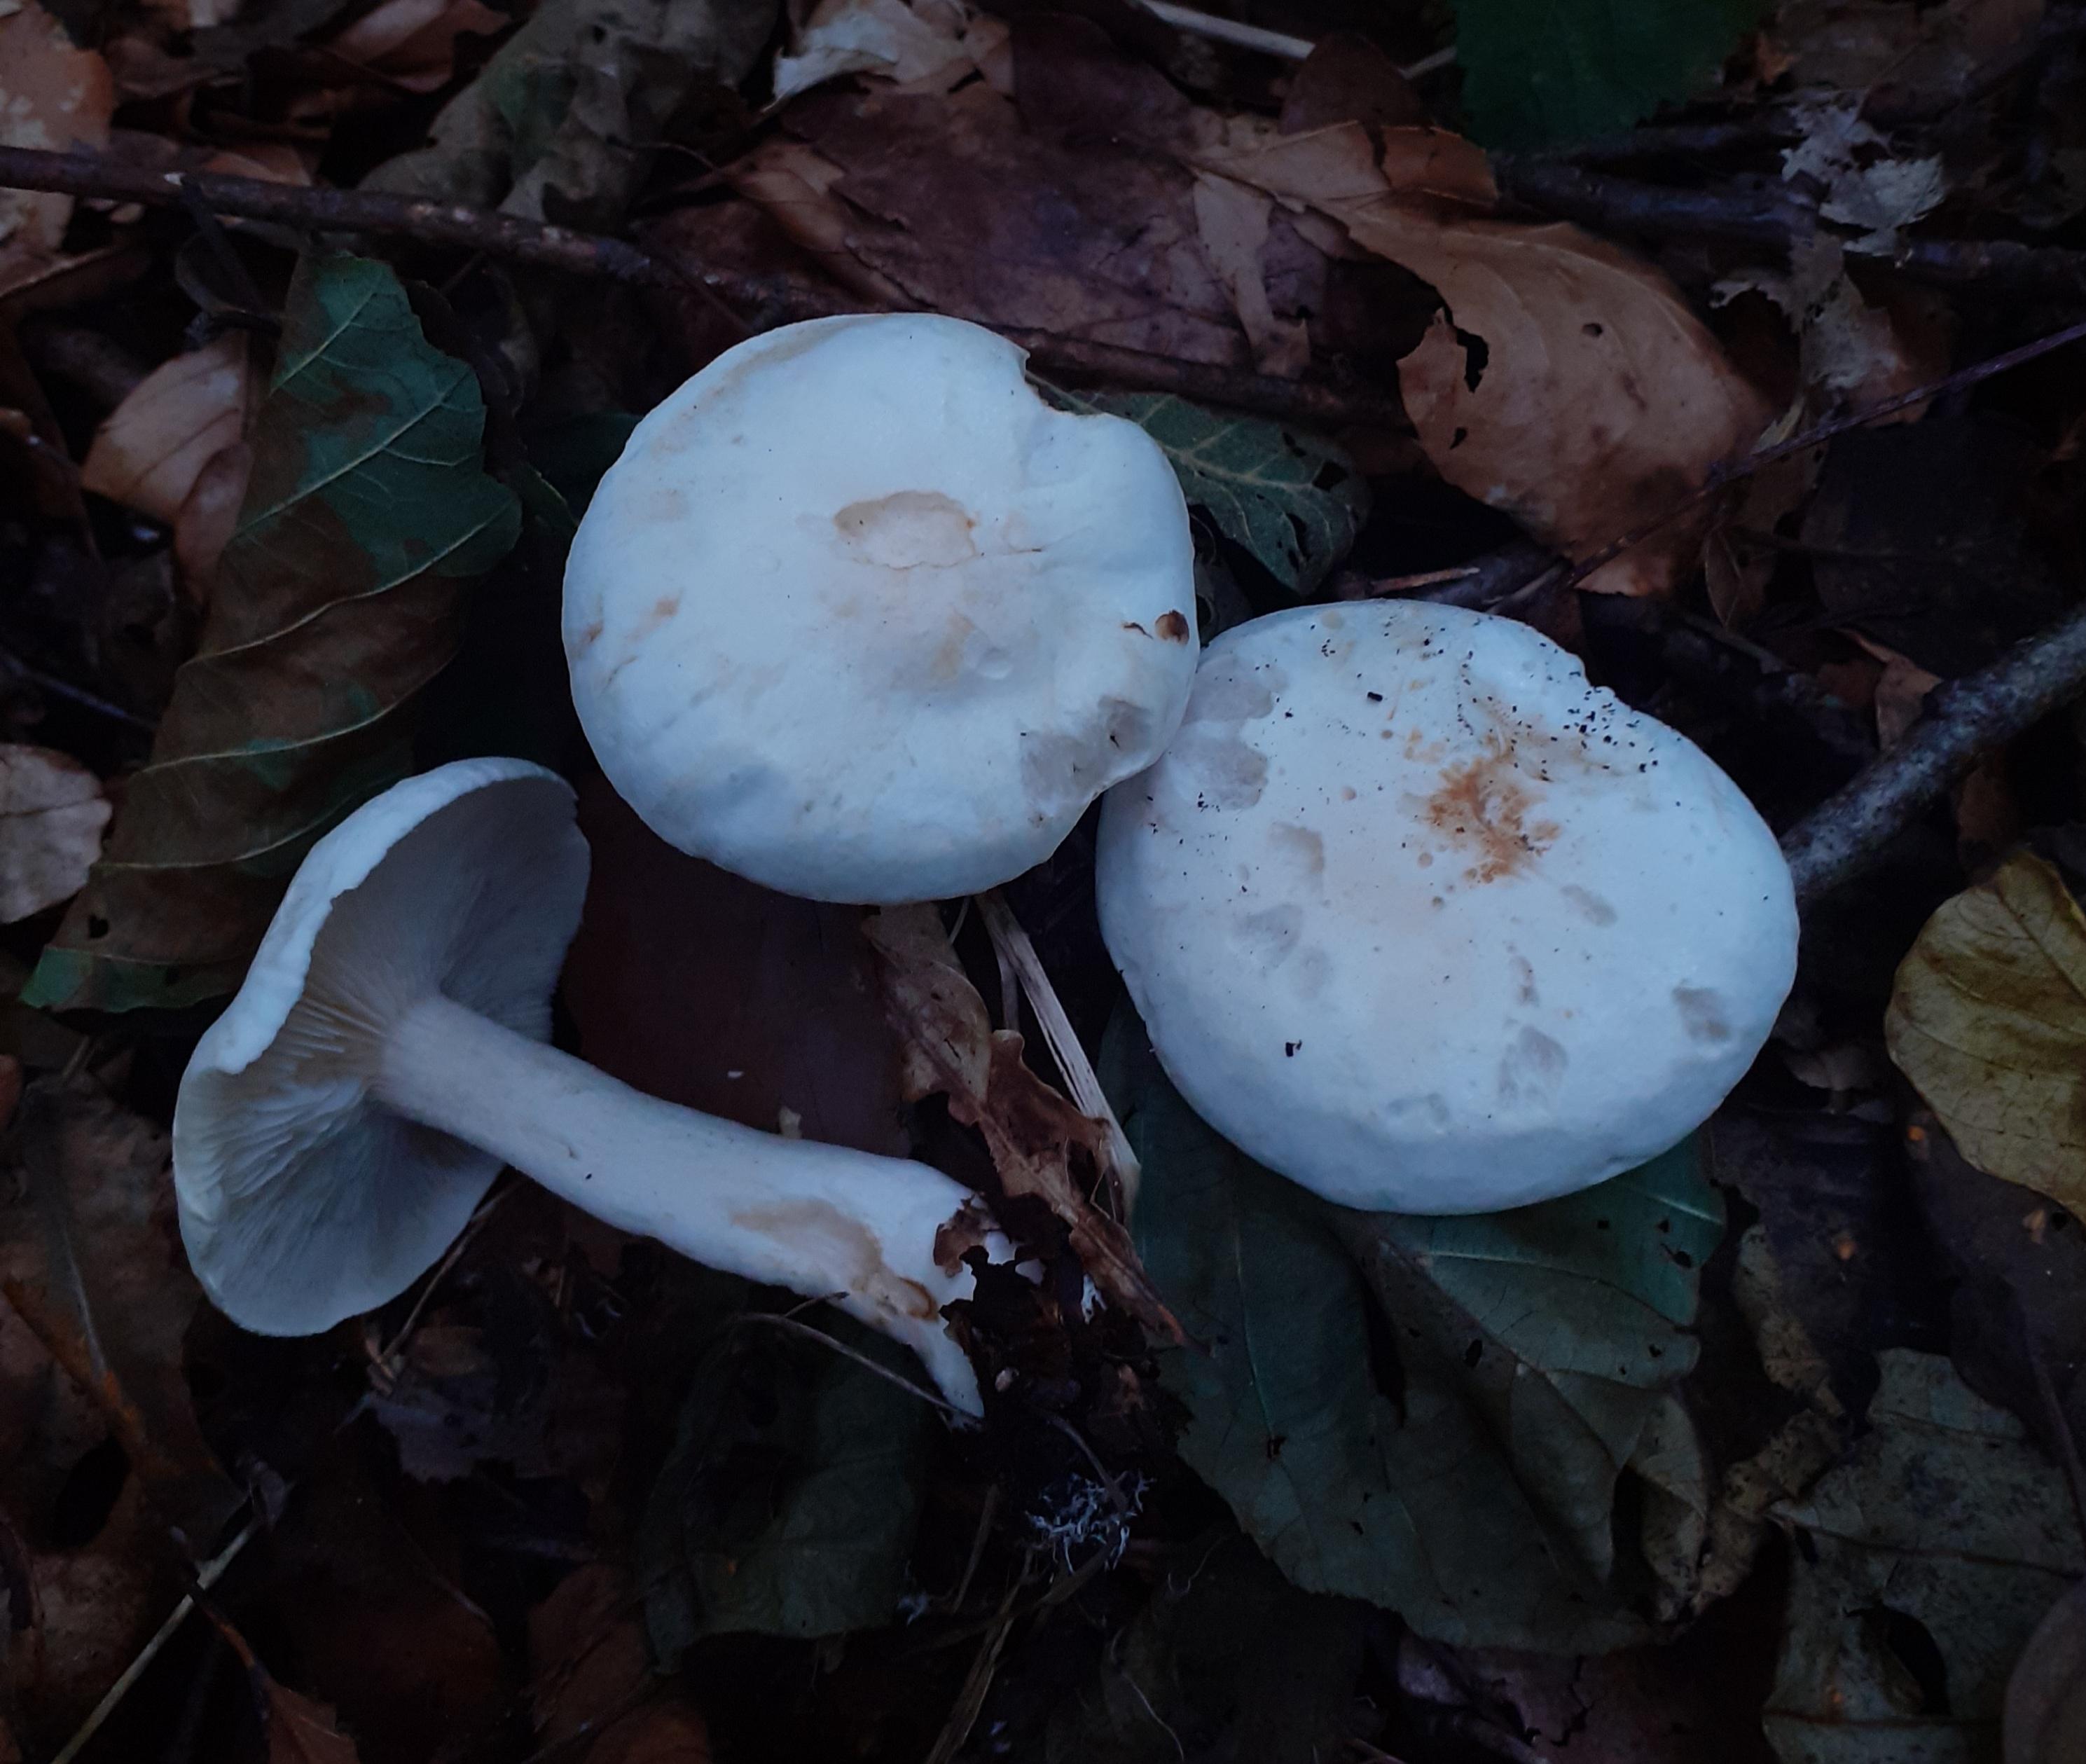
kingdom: Fungi
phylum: Basidiomycota
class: Agaricomycetes
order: Agaricales
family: Tricholomataceae
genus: Tricholoma
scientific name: Tricholoma stiparophyllum
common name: hvid ridderhat
